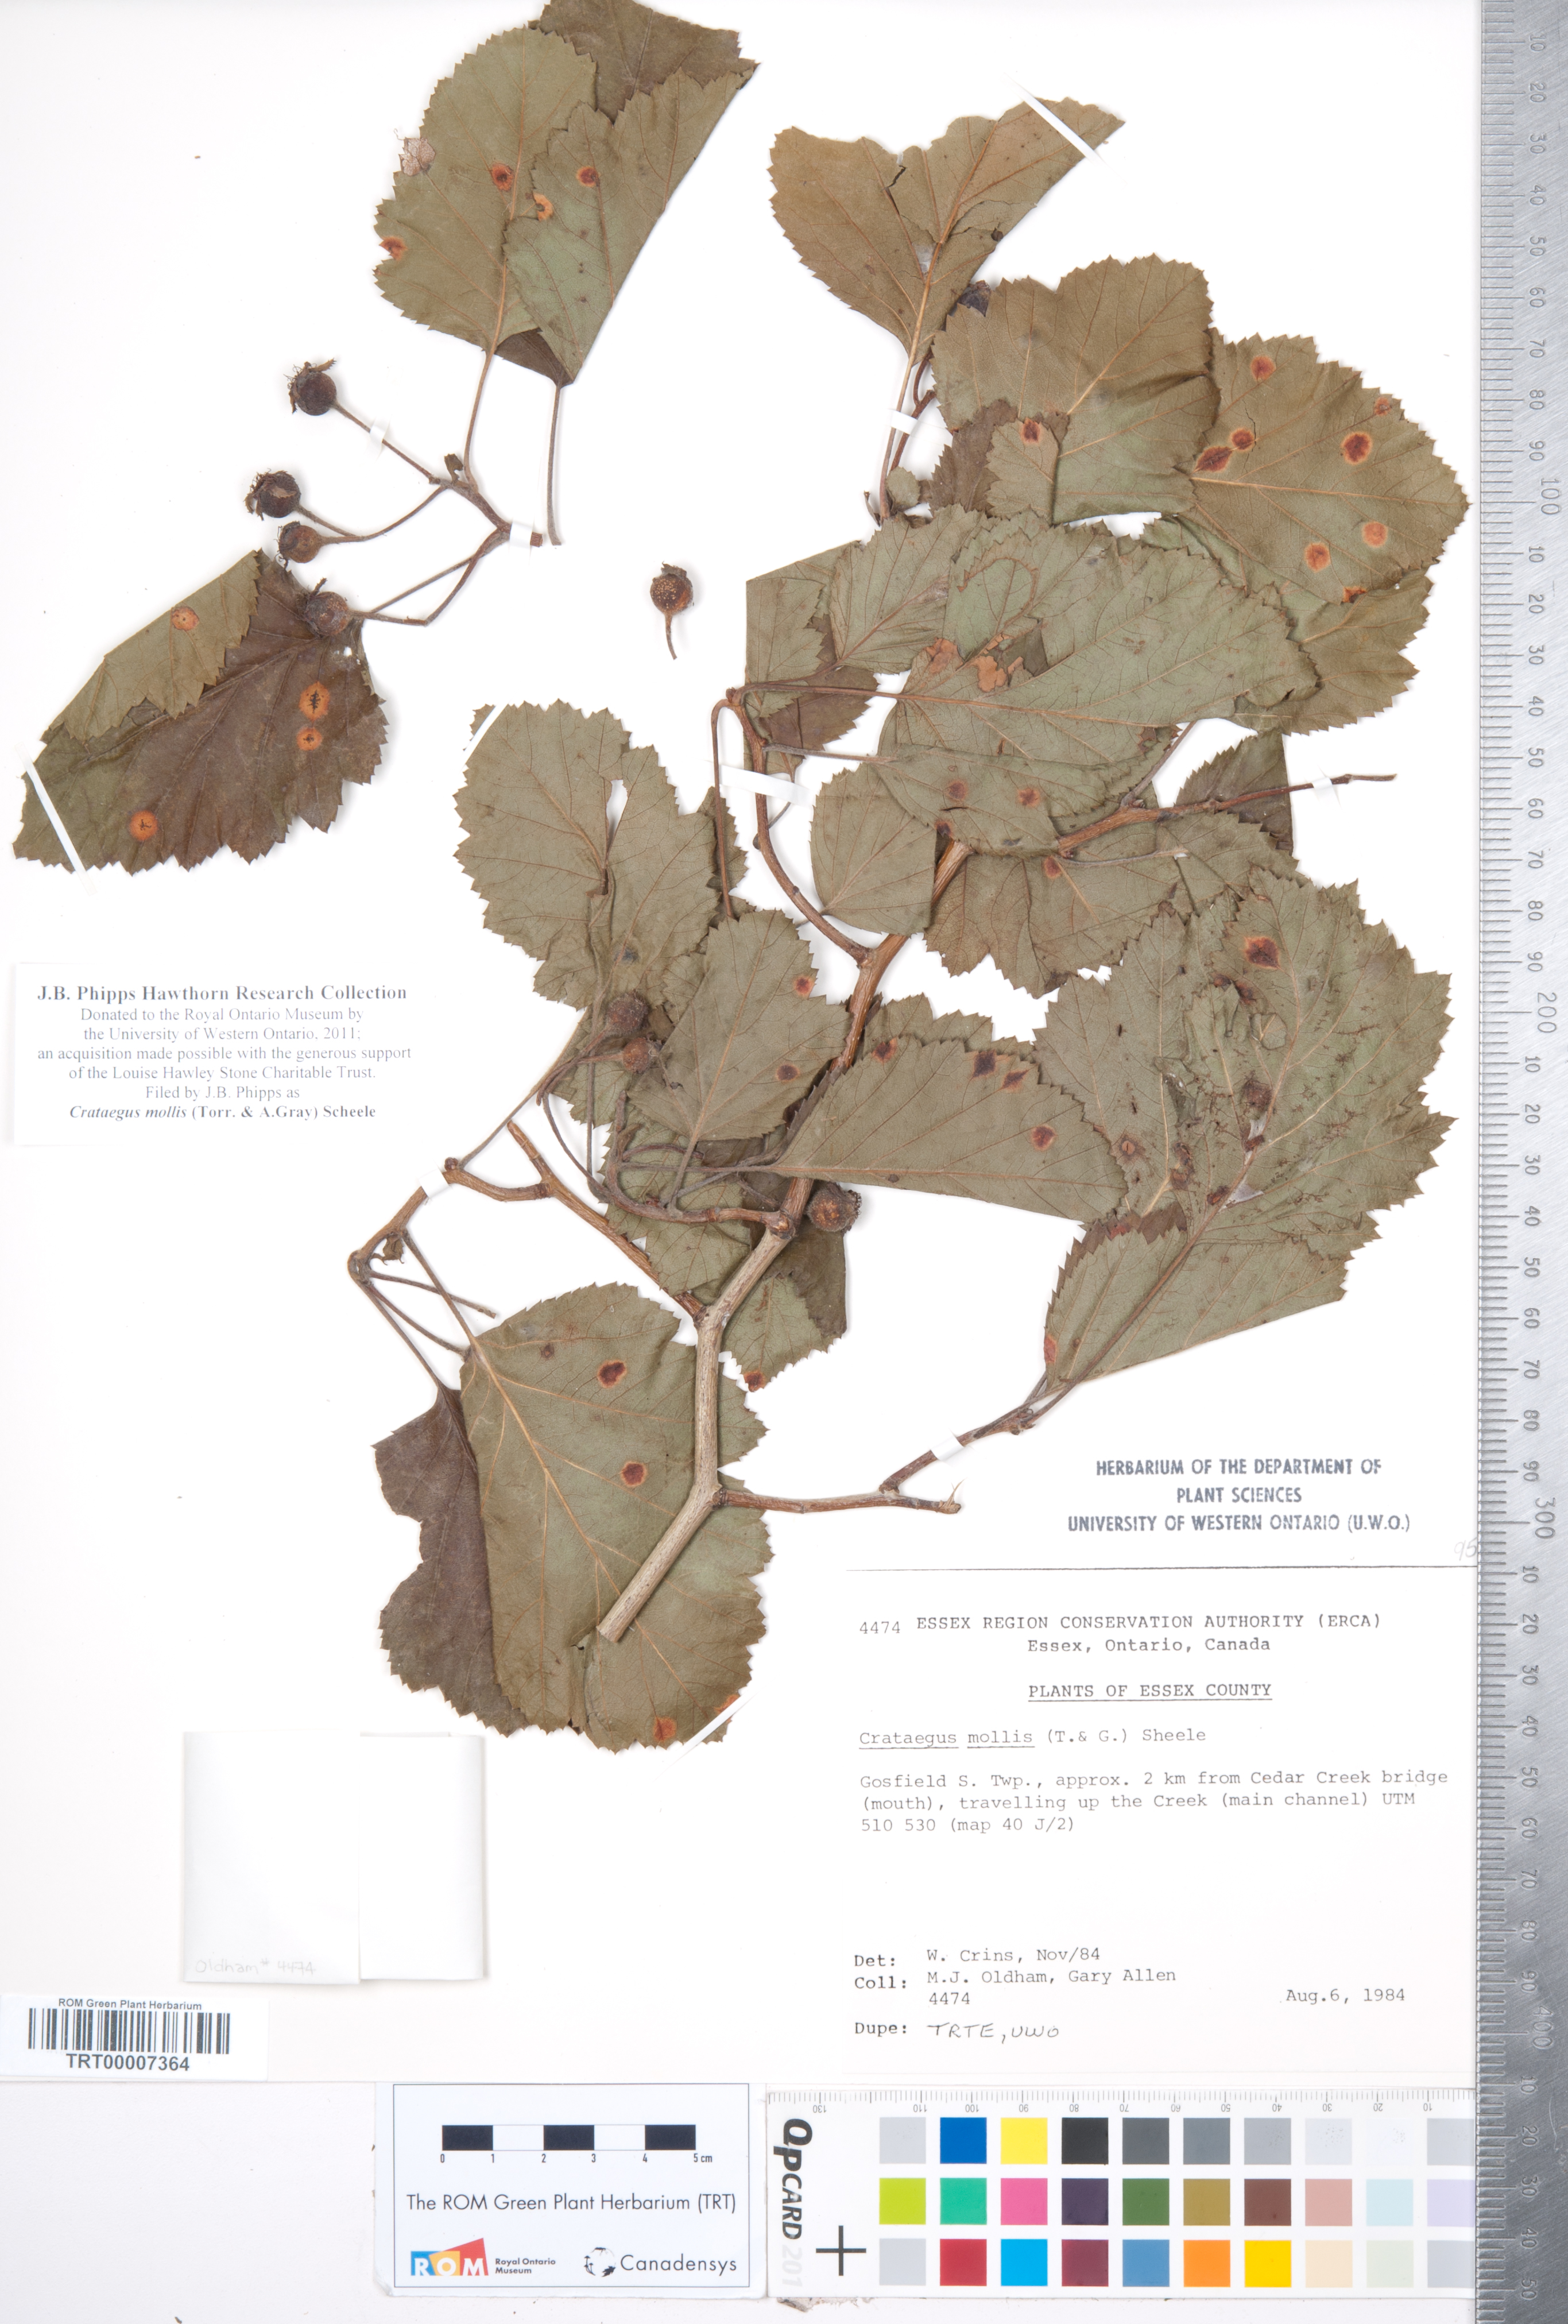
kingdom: Plantae
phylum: Tracheophyta
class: Magnoliopsida
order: Rosales
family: Rosaceae
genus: Crataegus
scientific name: Crataegus mollis
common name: Downy hawthorn
